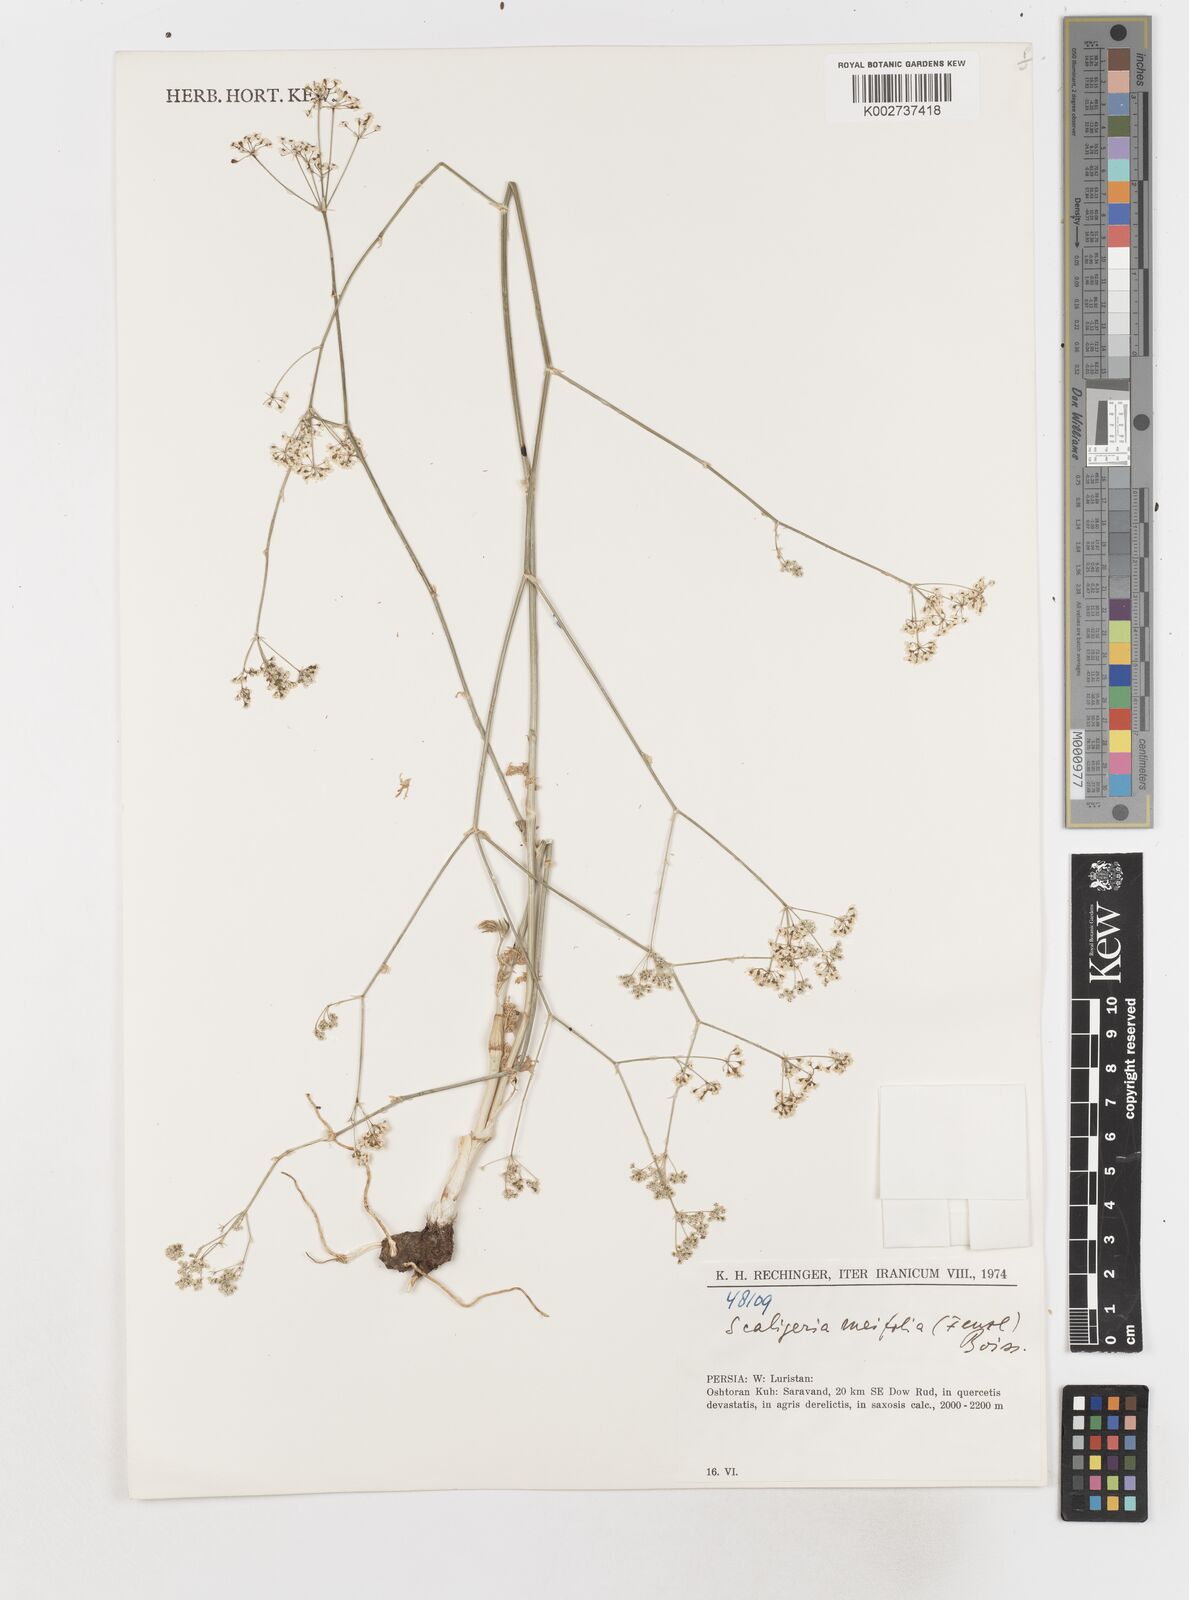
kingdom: Plantae
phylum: Tracheophyta
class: Magnoliopsida
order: Apiales
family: Apiaceae
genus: Elaeosticta
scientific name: Elaeosticta meifolia
